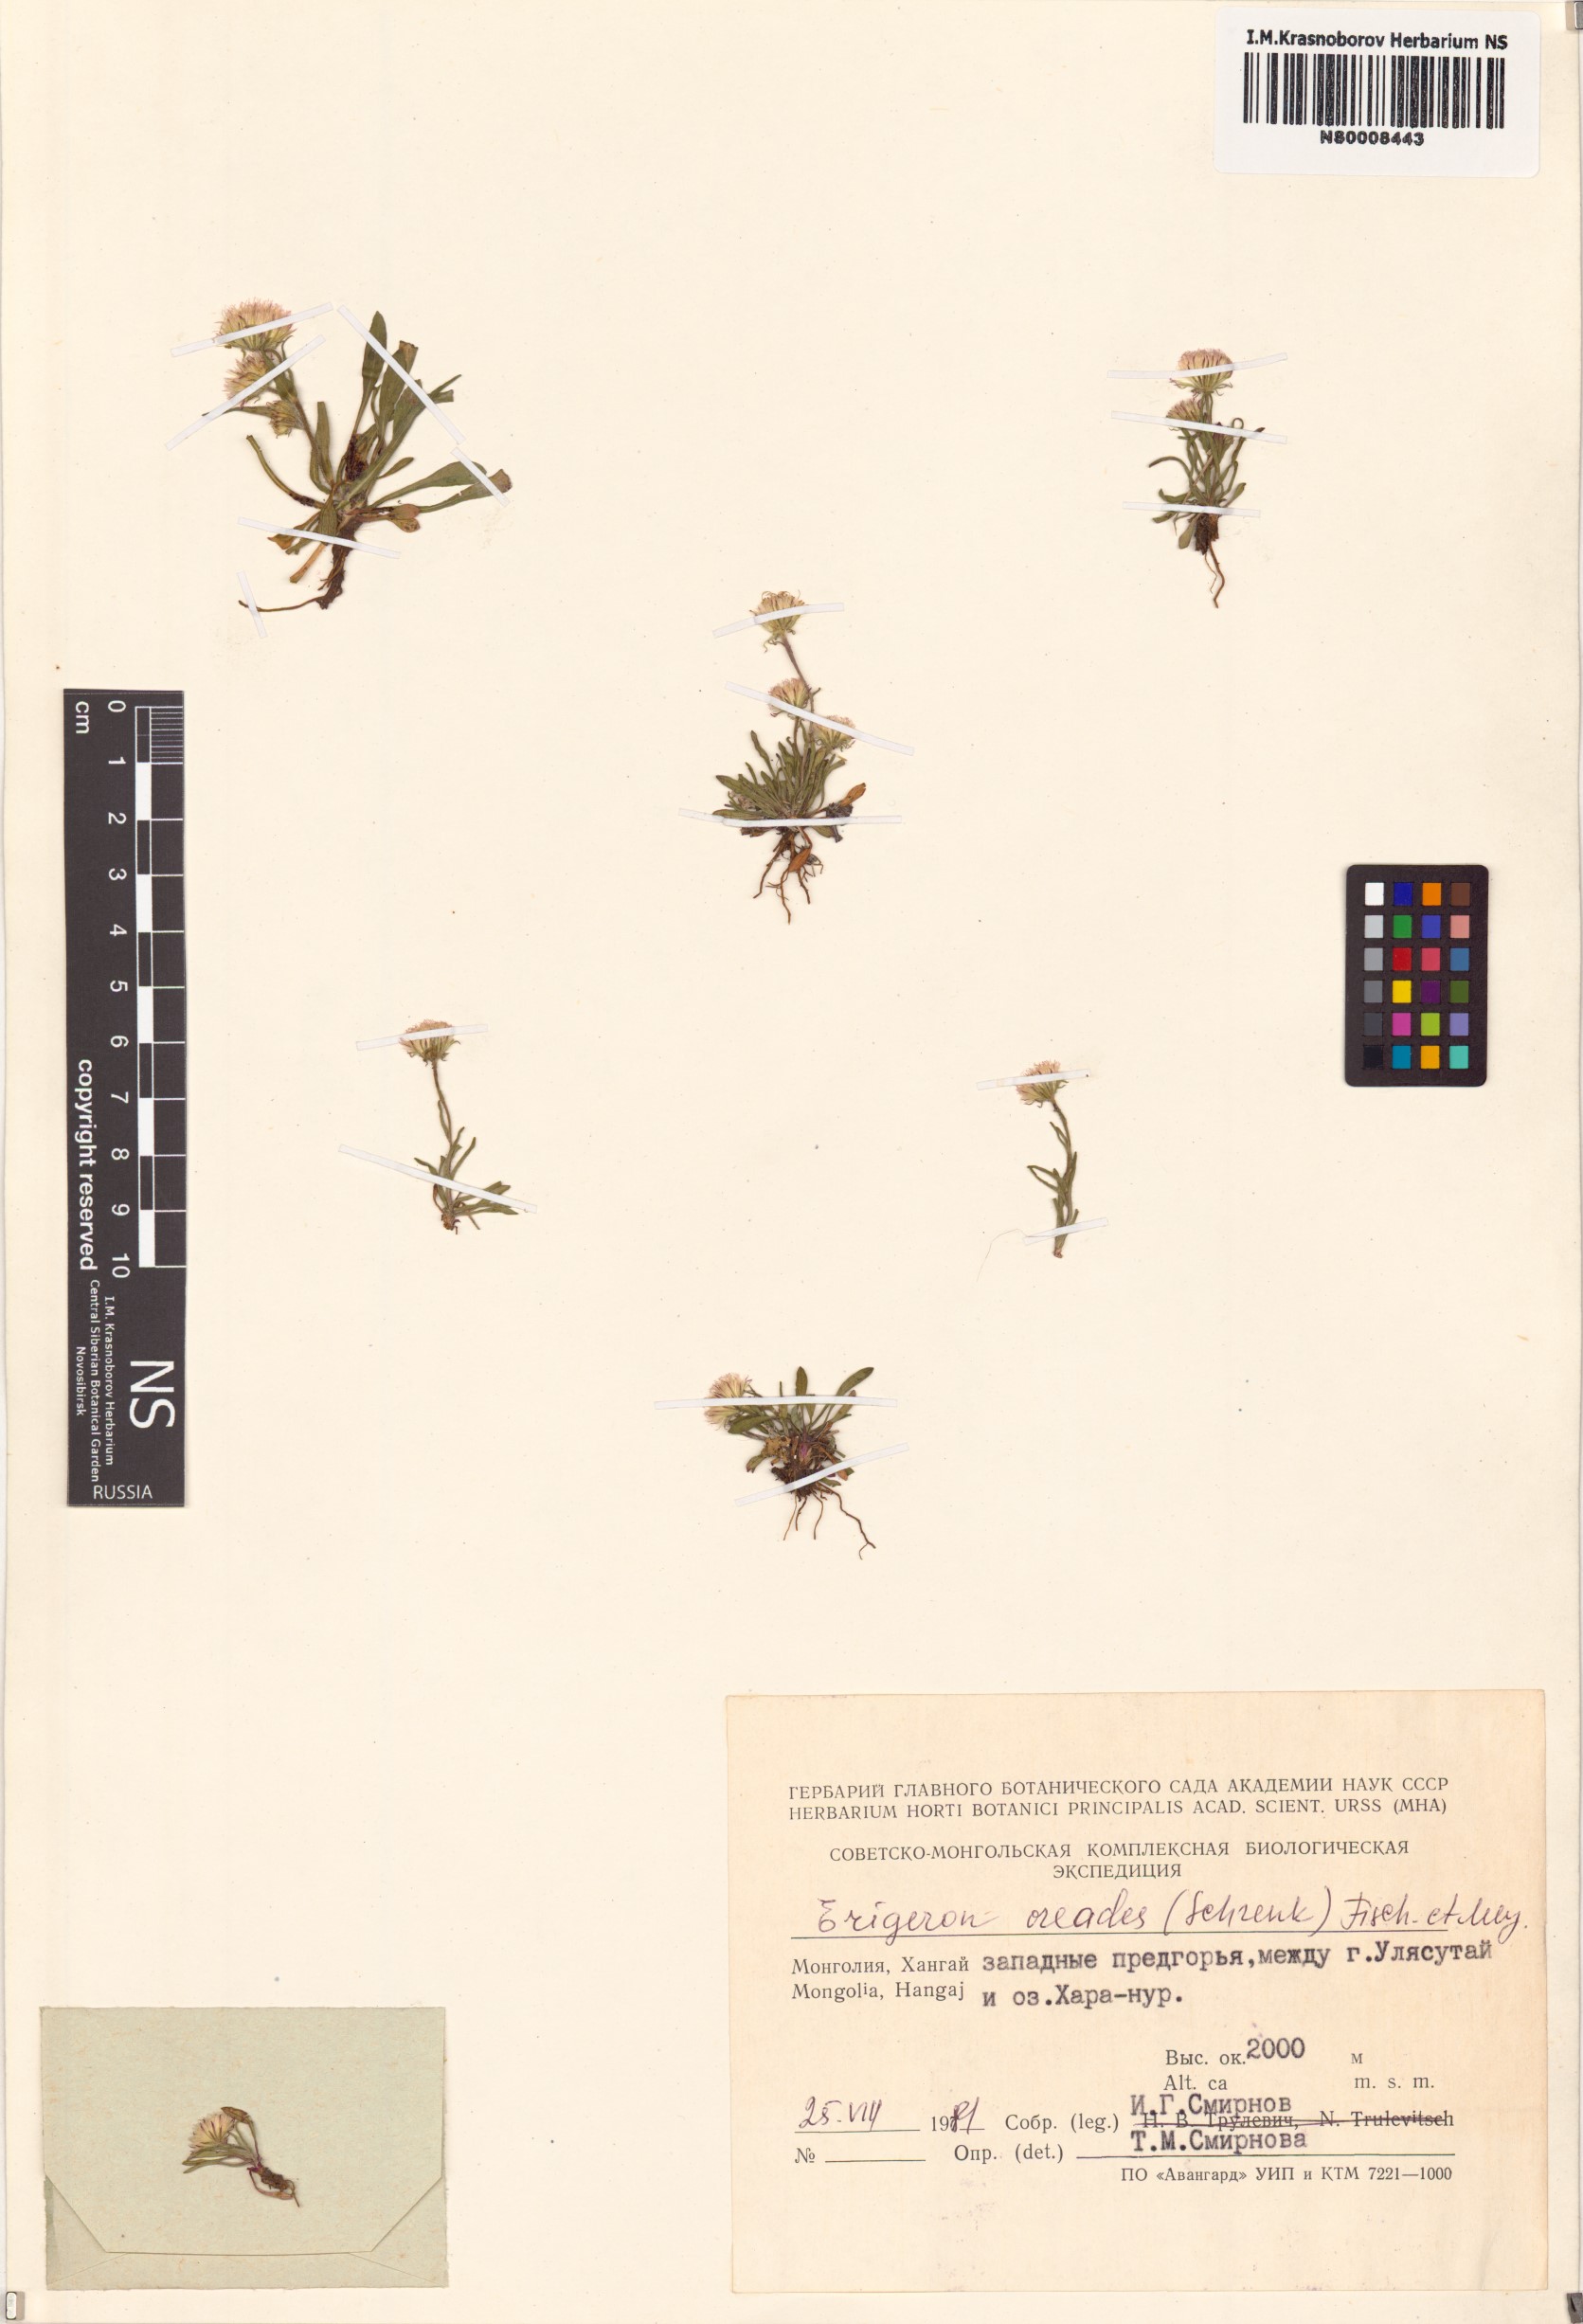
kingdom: Plantae
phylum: Tracheophyta
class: Magnoliopsida
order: Asterales
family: Asteraceae
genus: Erigeron
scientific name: Erigeron oreades
